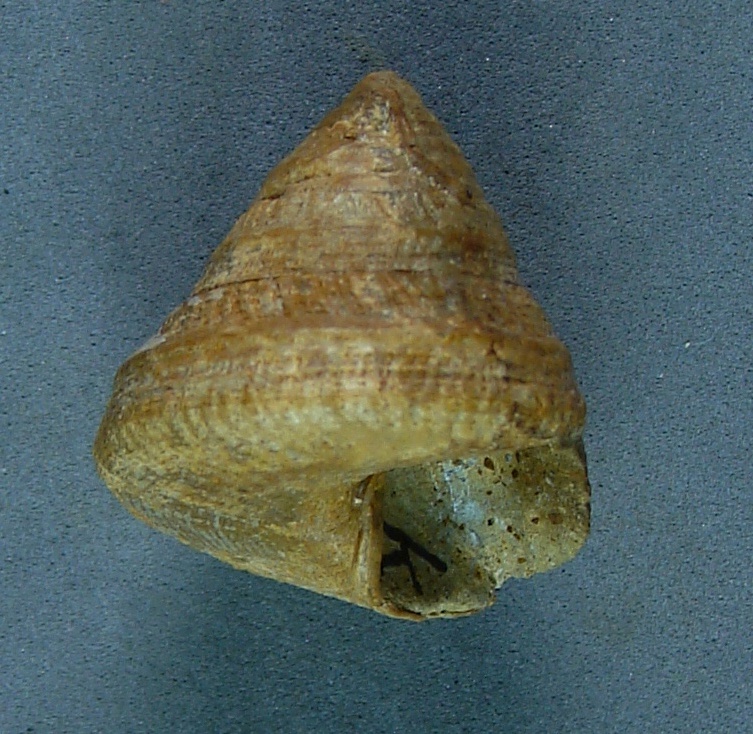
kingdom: Animalia
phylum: Mollusca
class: Gastropoda
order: Pleurotomariida
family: Pleurotomariidae
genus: Bathrotomaria
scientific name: Bathrotomaria Pleurotomaria subreticulata
